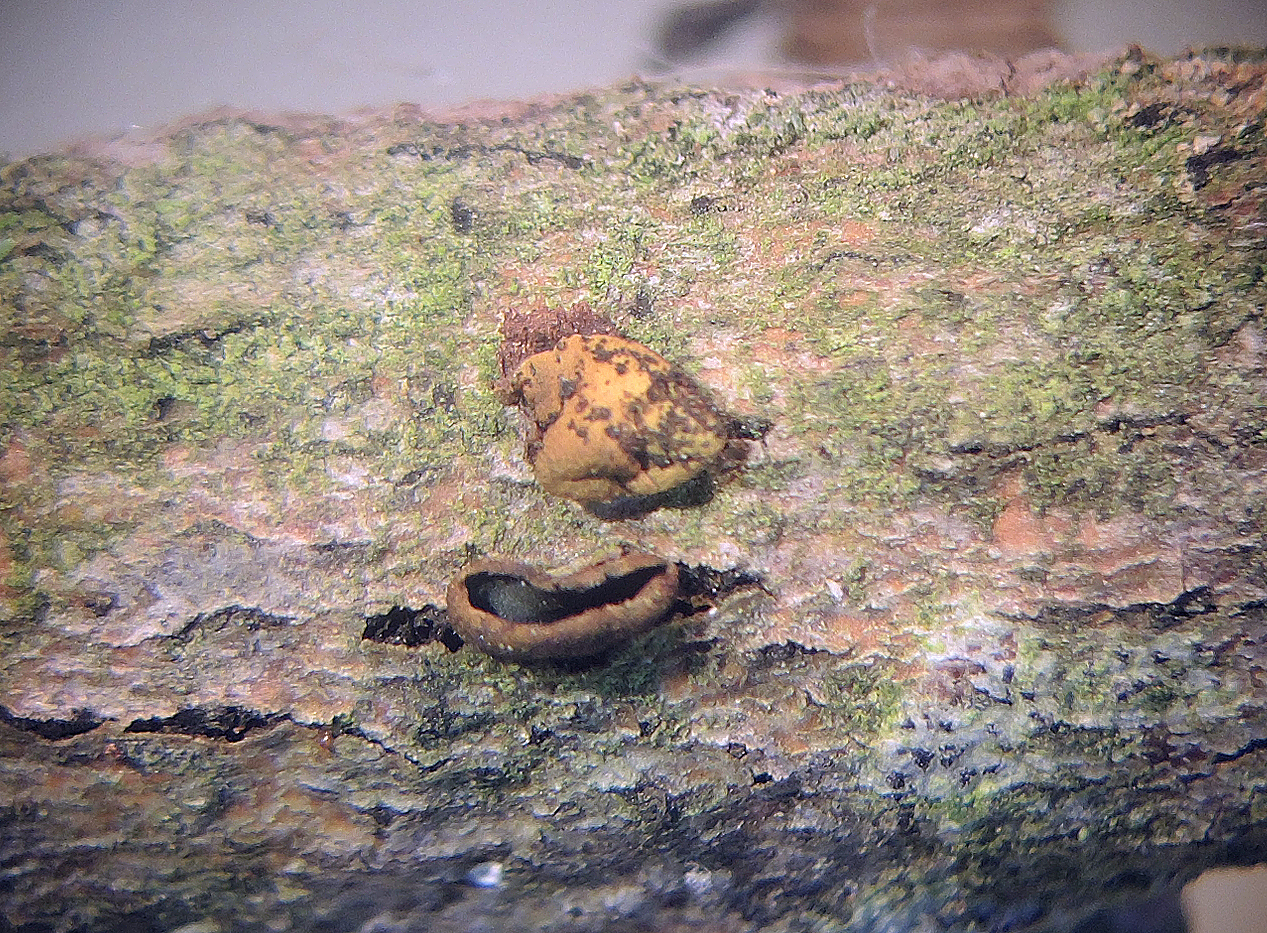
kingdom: Fungi
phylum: Ascomycota
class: Leotiomycetes
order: Helotiales
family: Cordieritidaceae
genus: Ionomidotis
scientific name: Ionomidotis fulvotingens
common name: rødmende tjæreskive
